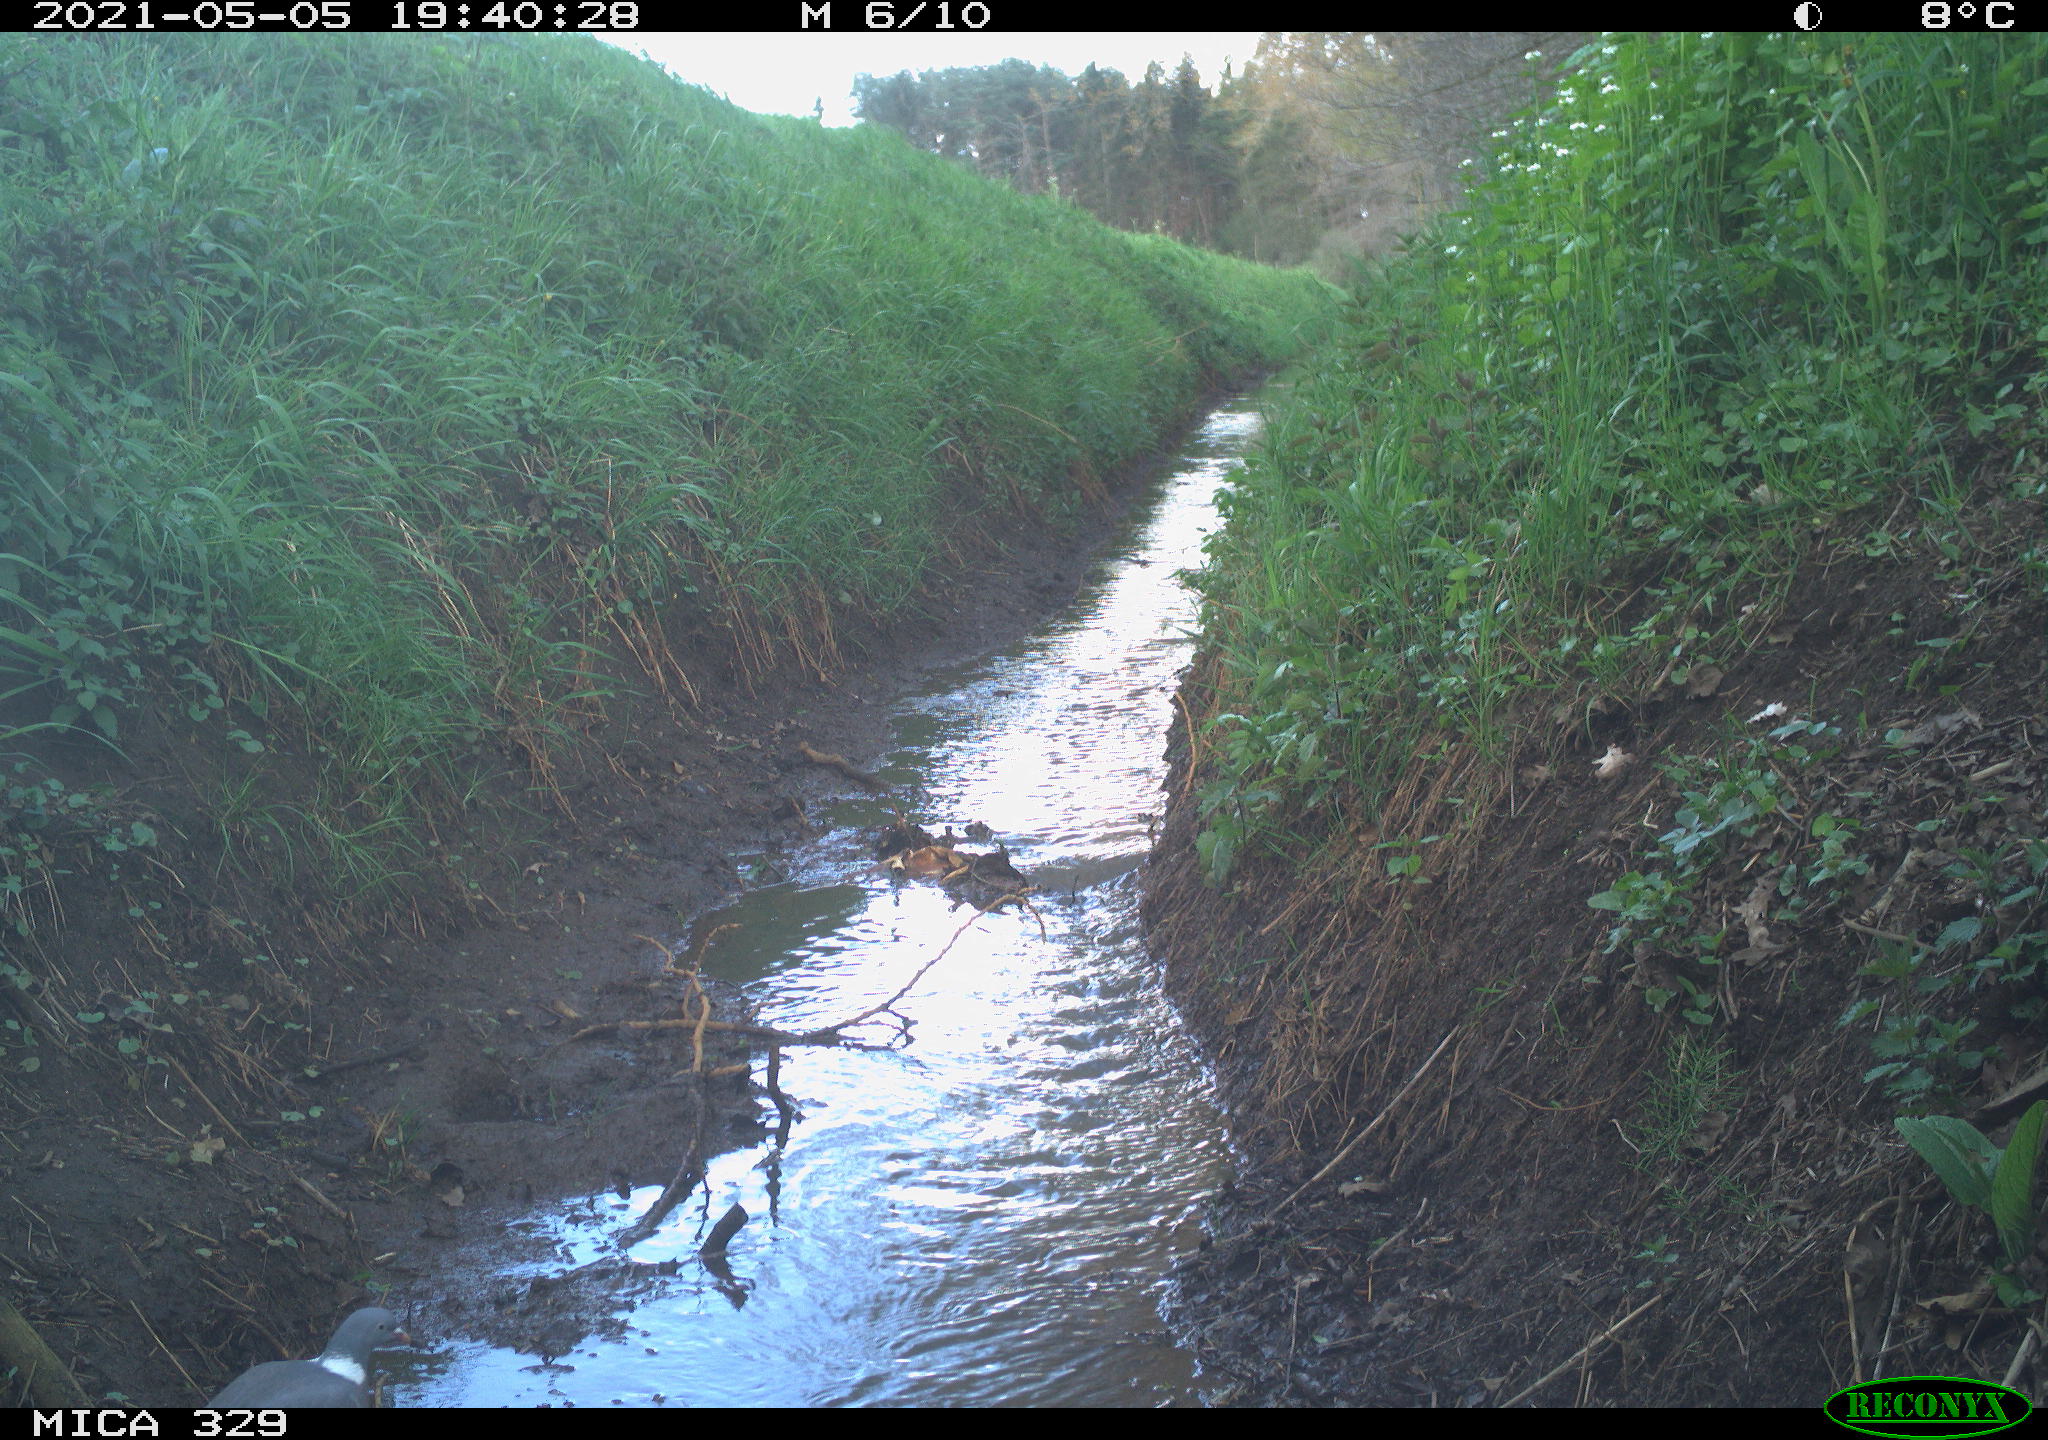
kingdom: Animalia
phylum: Chordata
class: Aves
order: Columbiformes
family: Columbidae
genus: Columba
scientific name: Columba palumbus
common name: Common wood pigeon
